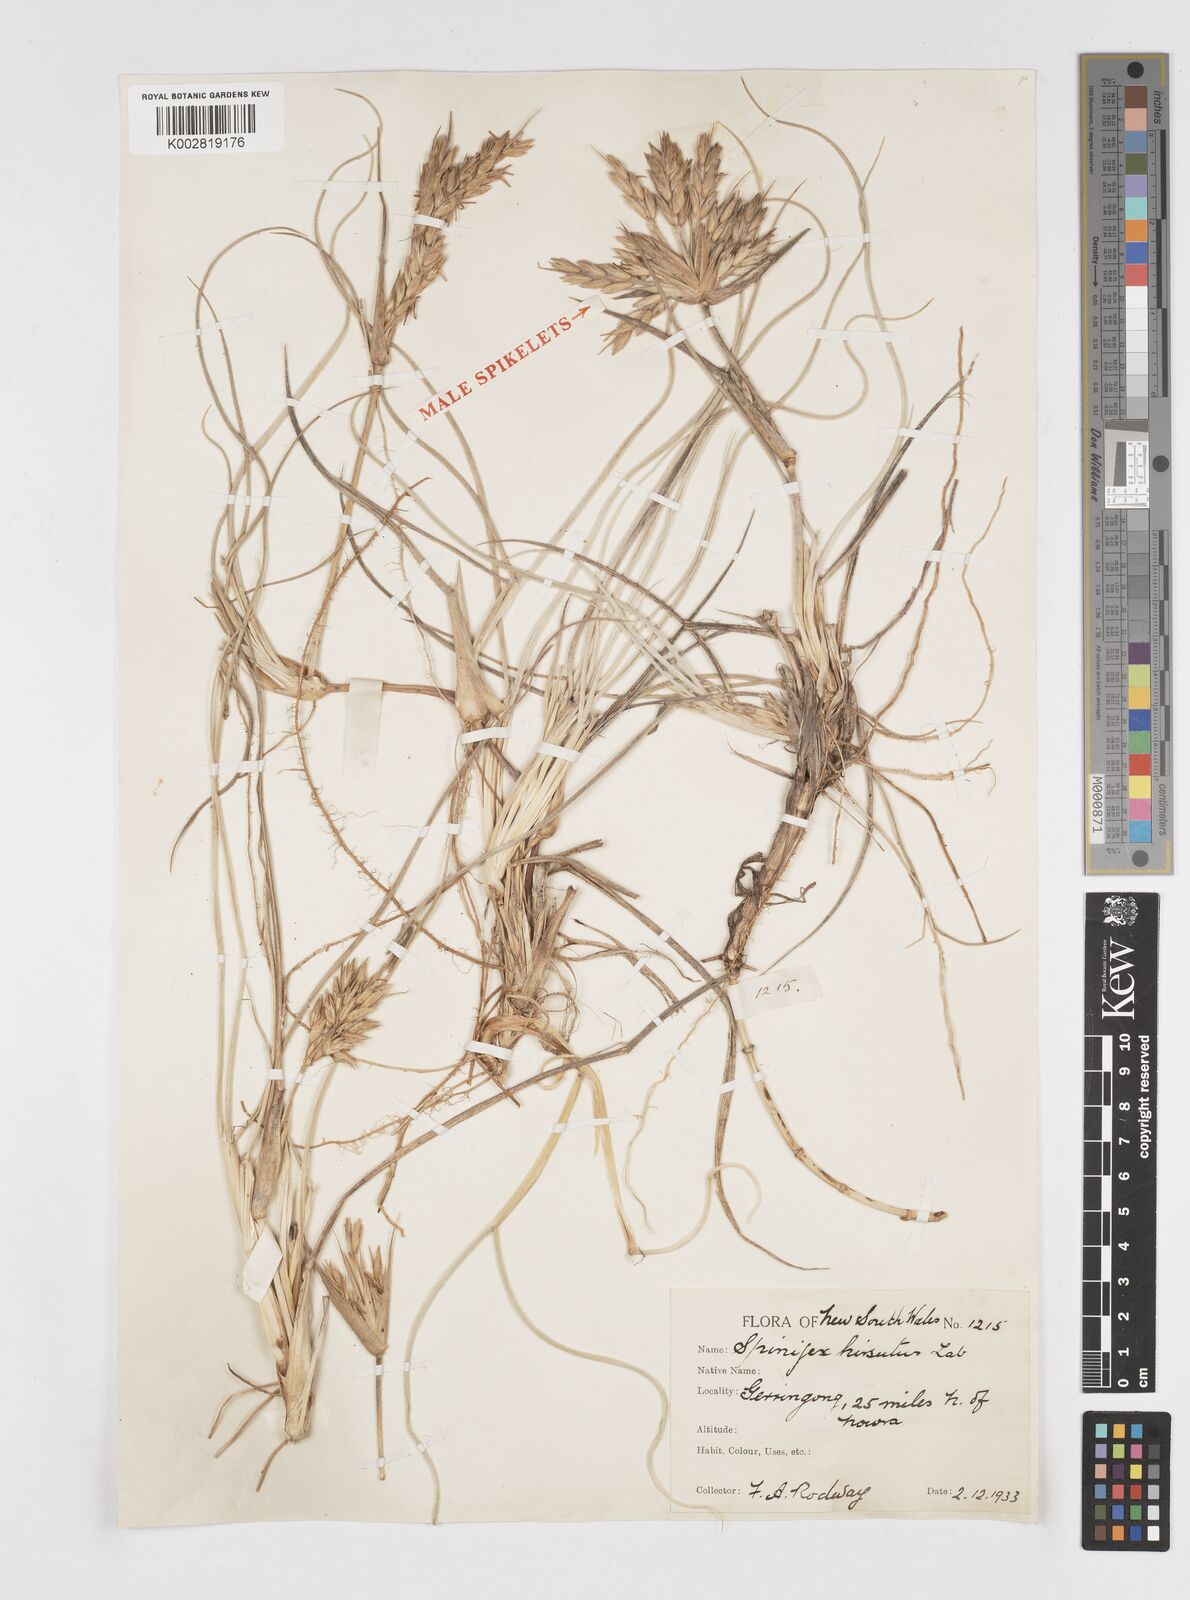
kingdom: Plantae
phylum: Tracheophyta
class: Liliopsida
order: Poales
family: Poaceae
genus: Spinifex
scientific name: Spinifex hirsutus
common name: Hairy spinifex
